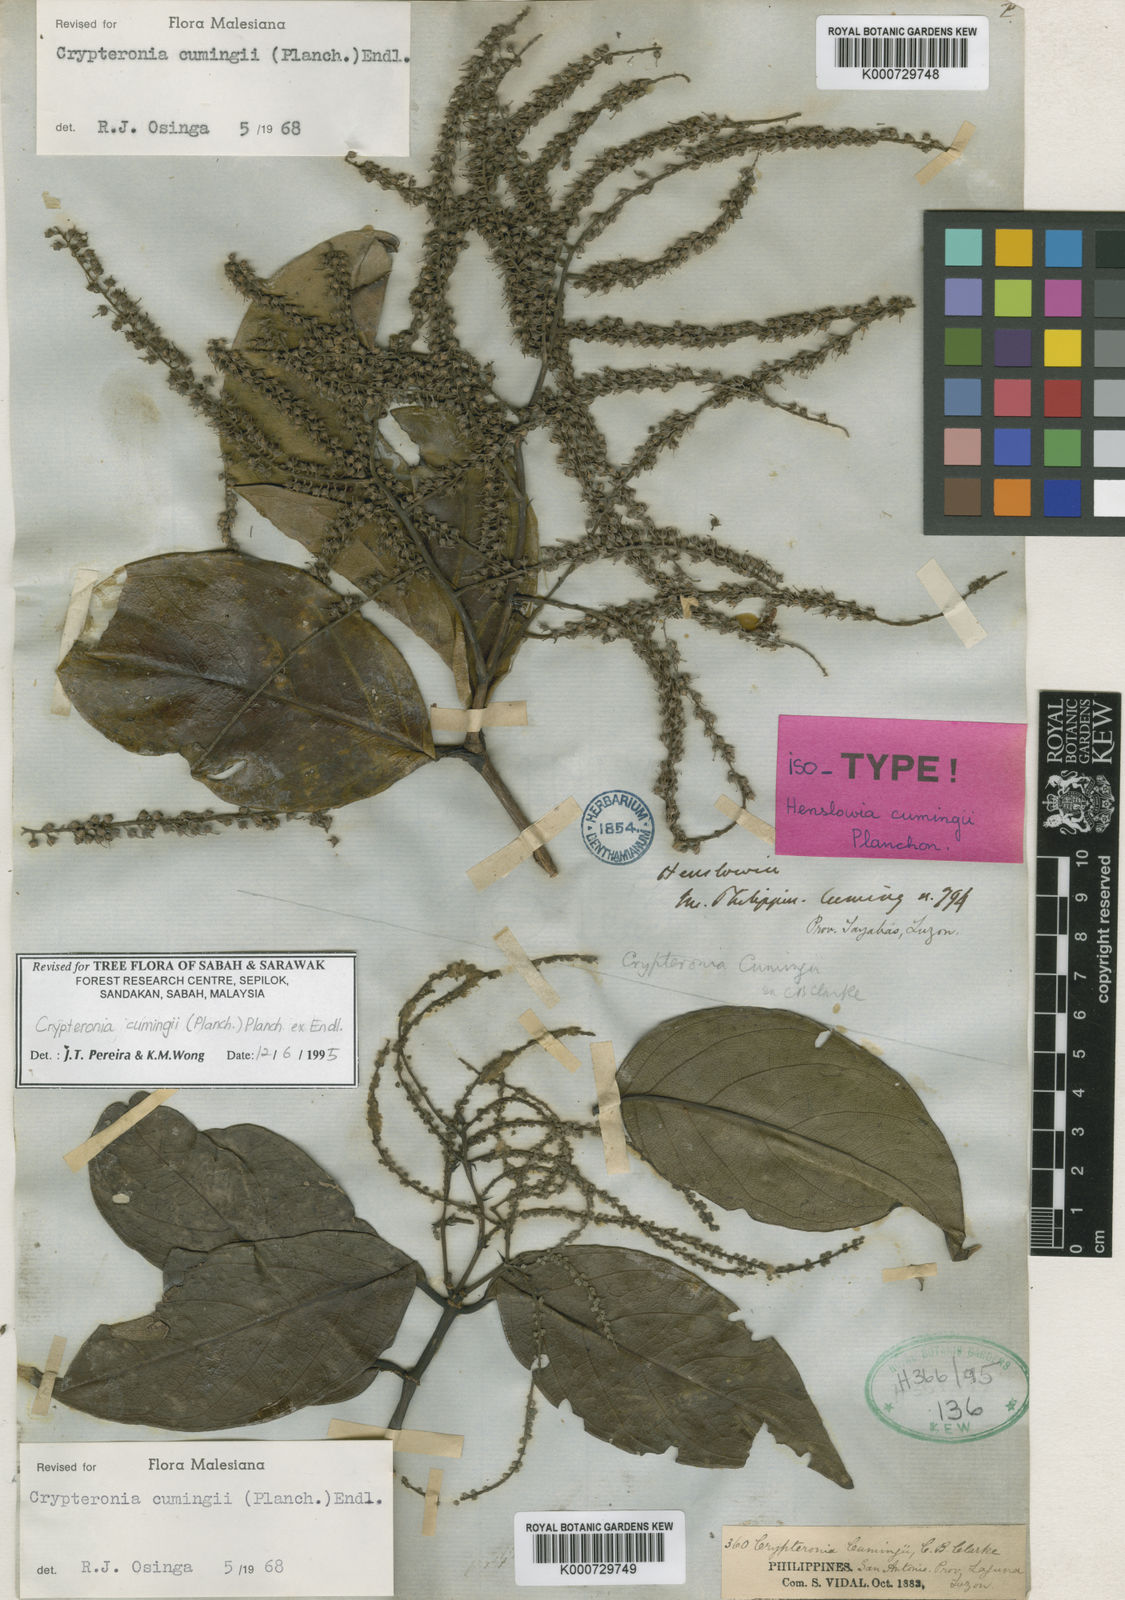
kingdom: Plantae
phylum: Tracheophyta
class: Magnoliopsida
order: Myrtales
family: Crypteroniaceae
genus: Crypteronia
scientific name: Crypteronia cumingii
